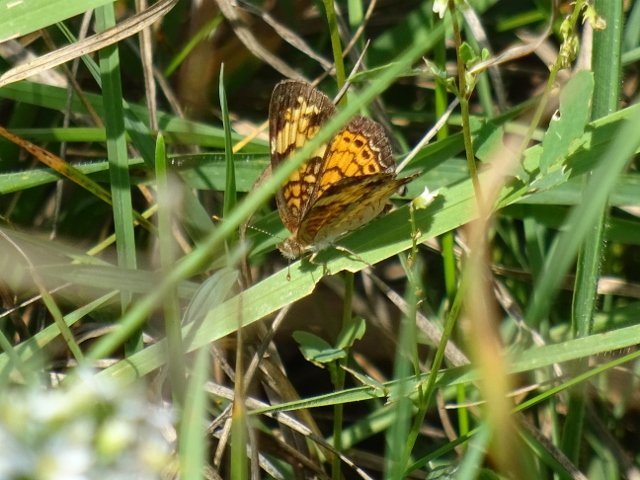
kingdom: Animalia
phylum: Arthropoda
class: Insecta
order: Lepidoptera
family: Nymphalidae
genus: Phyciodes
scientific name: Phyciodes tharos
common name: Northern Crescent
